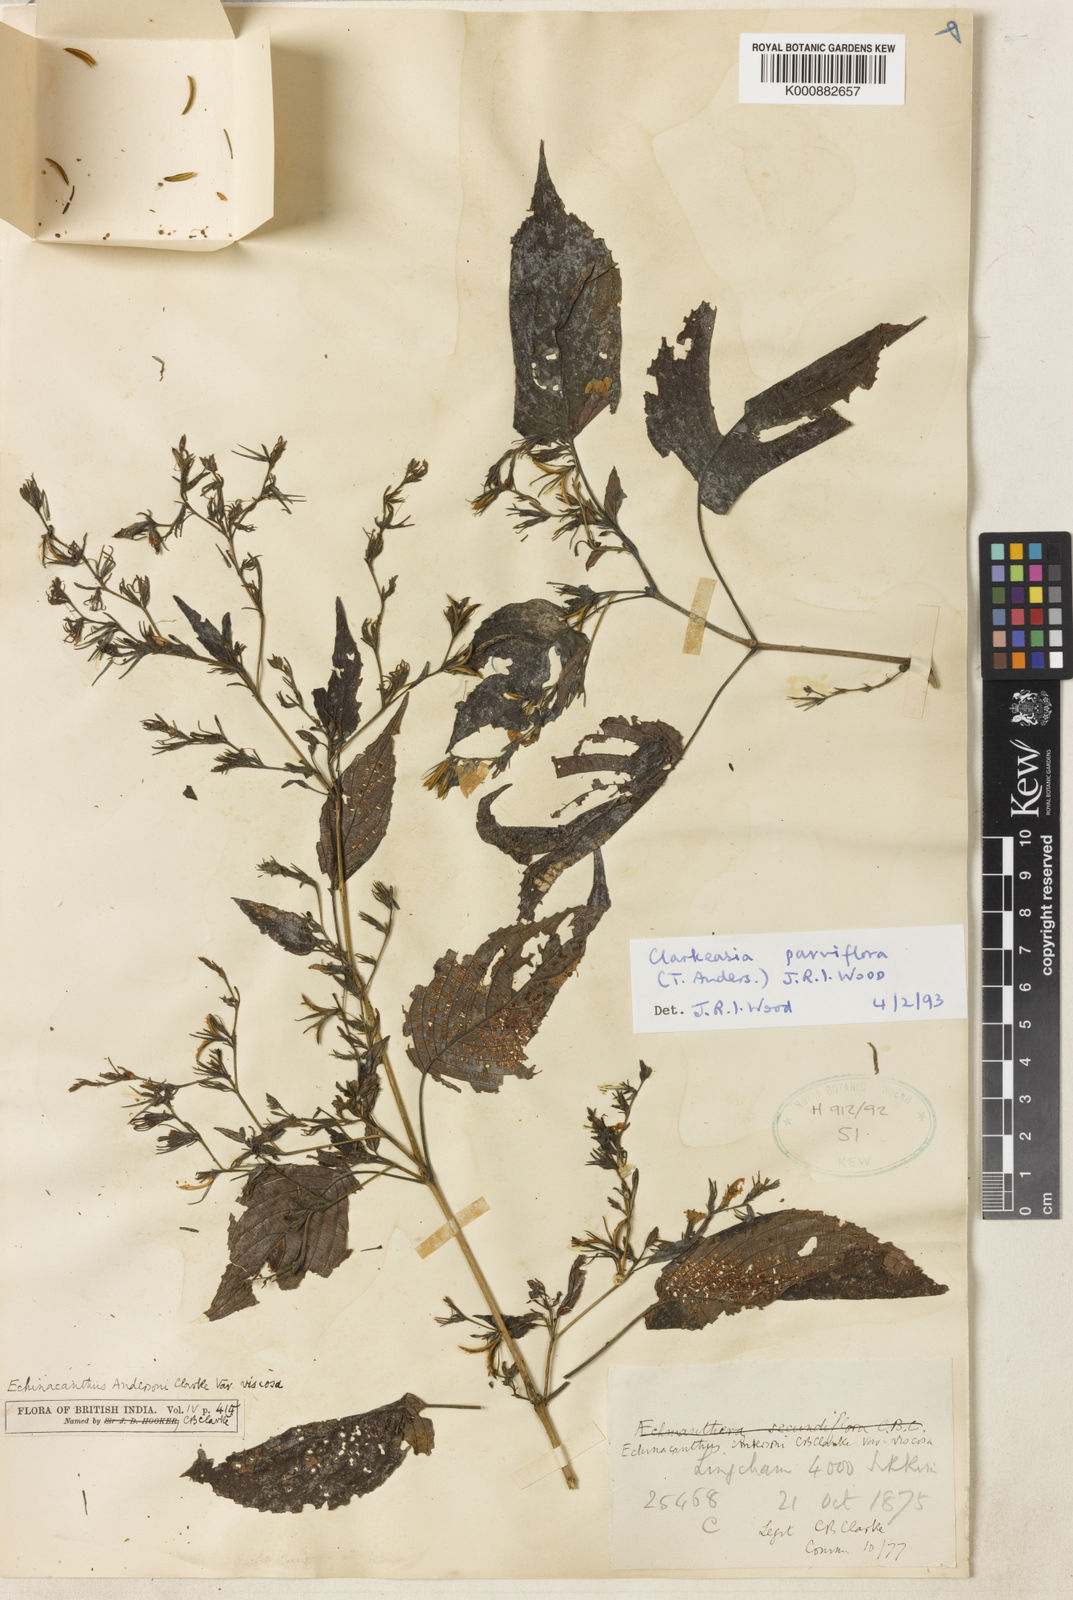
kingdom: Plantae
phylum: Tracheophyta
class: Magnoliopsida
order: Lamiales
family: Acanthaceae
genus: Strobilanthes
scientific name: Strobilanthes violifolia
